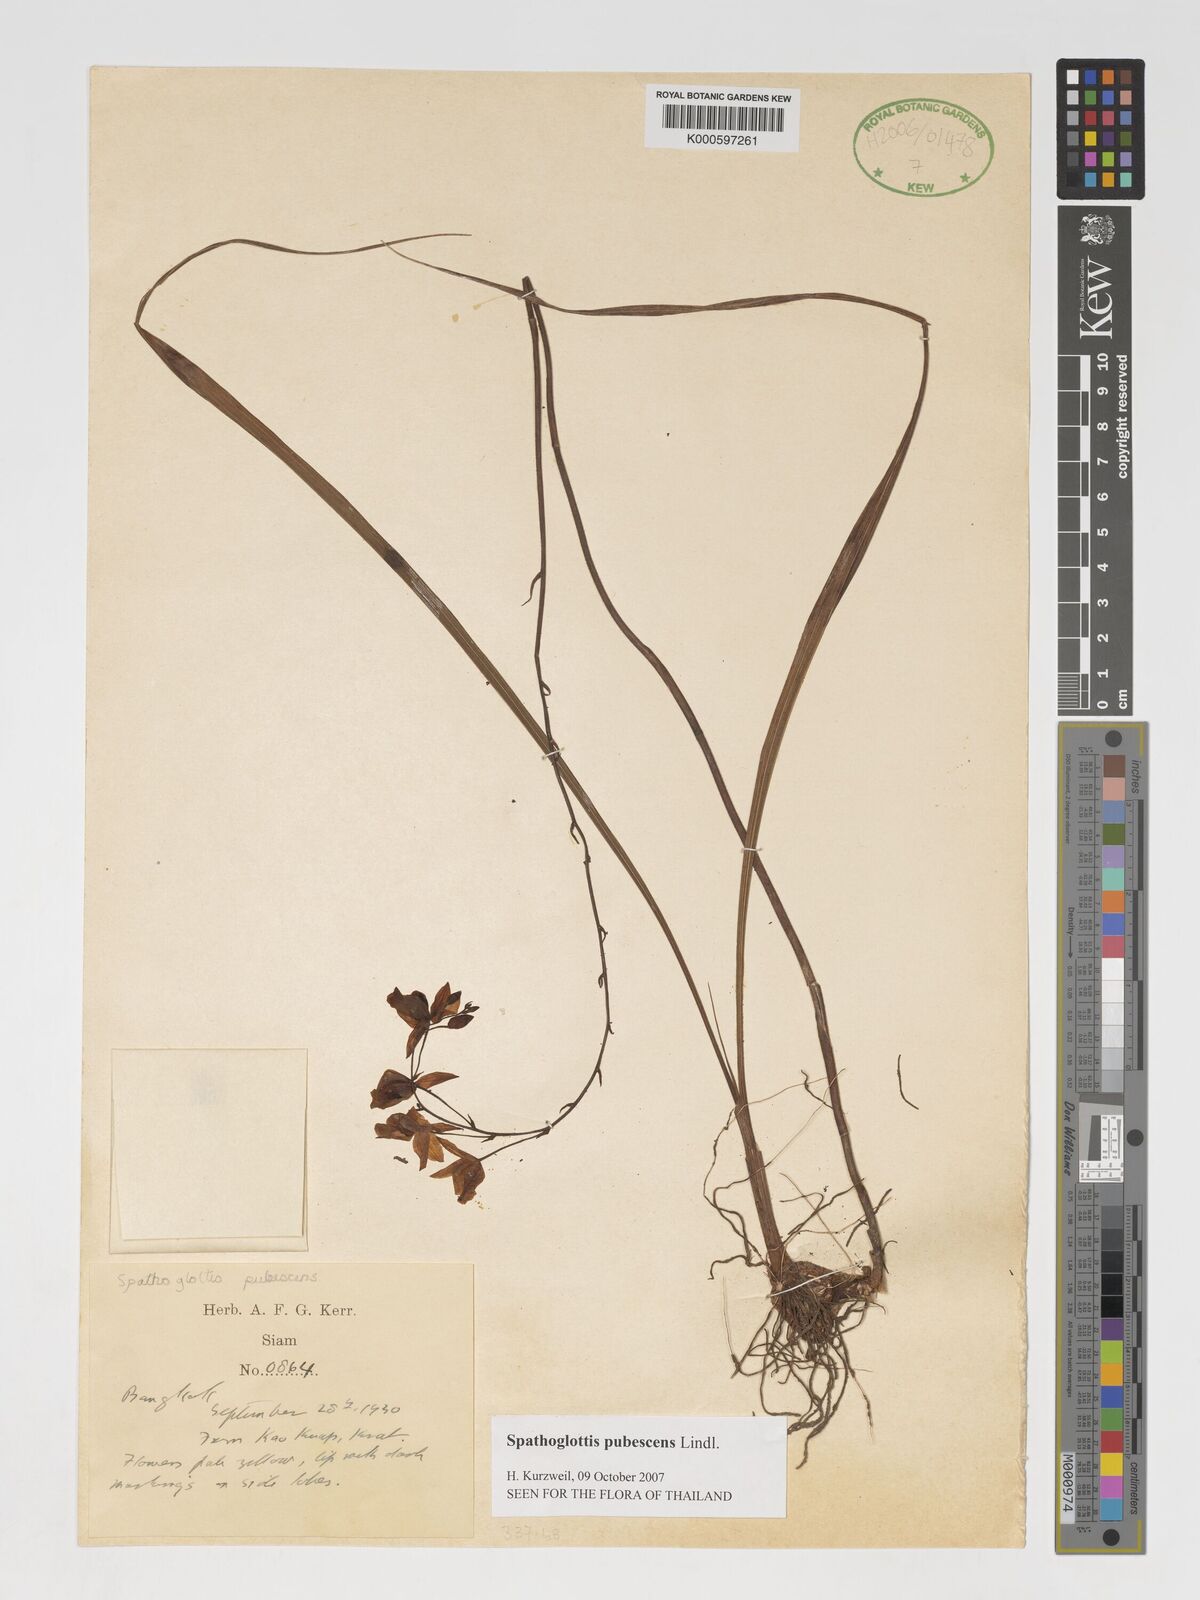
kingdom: Plantae
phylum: Tracheophyta
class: Liliopsida
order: Asparagales
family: Orchidaceae
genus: Spathoglottis
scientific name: Spathoglottis pubescens
